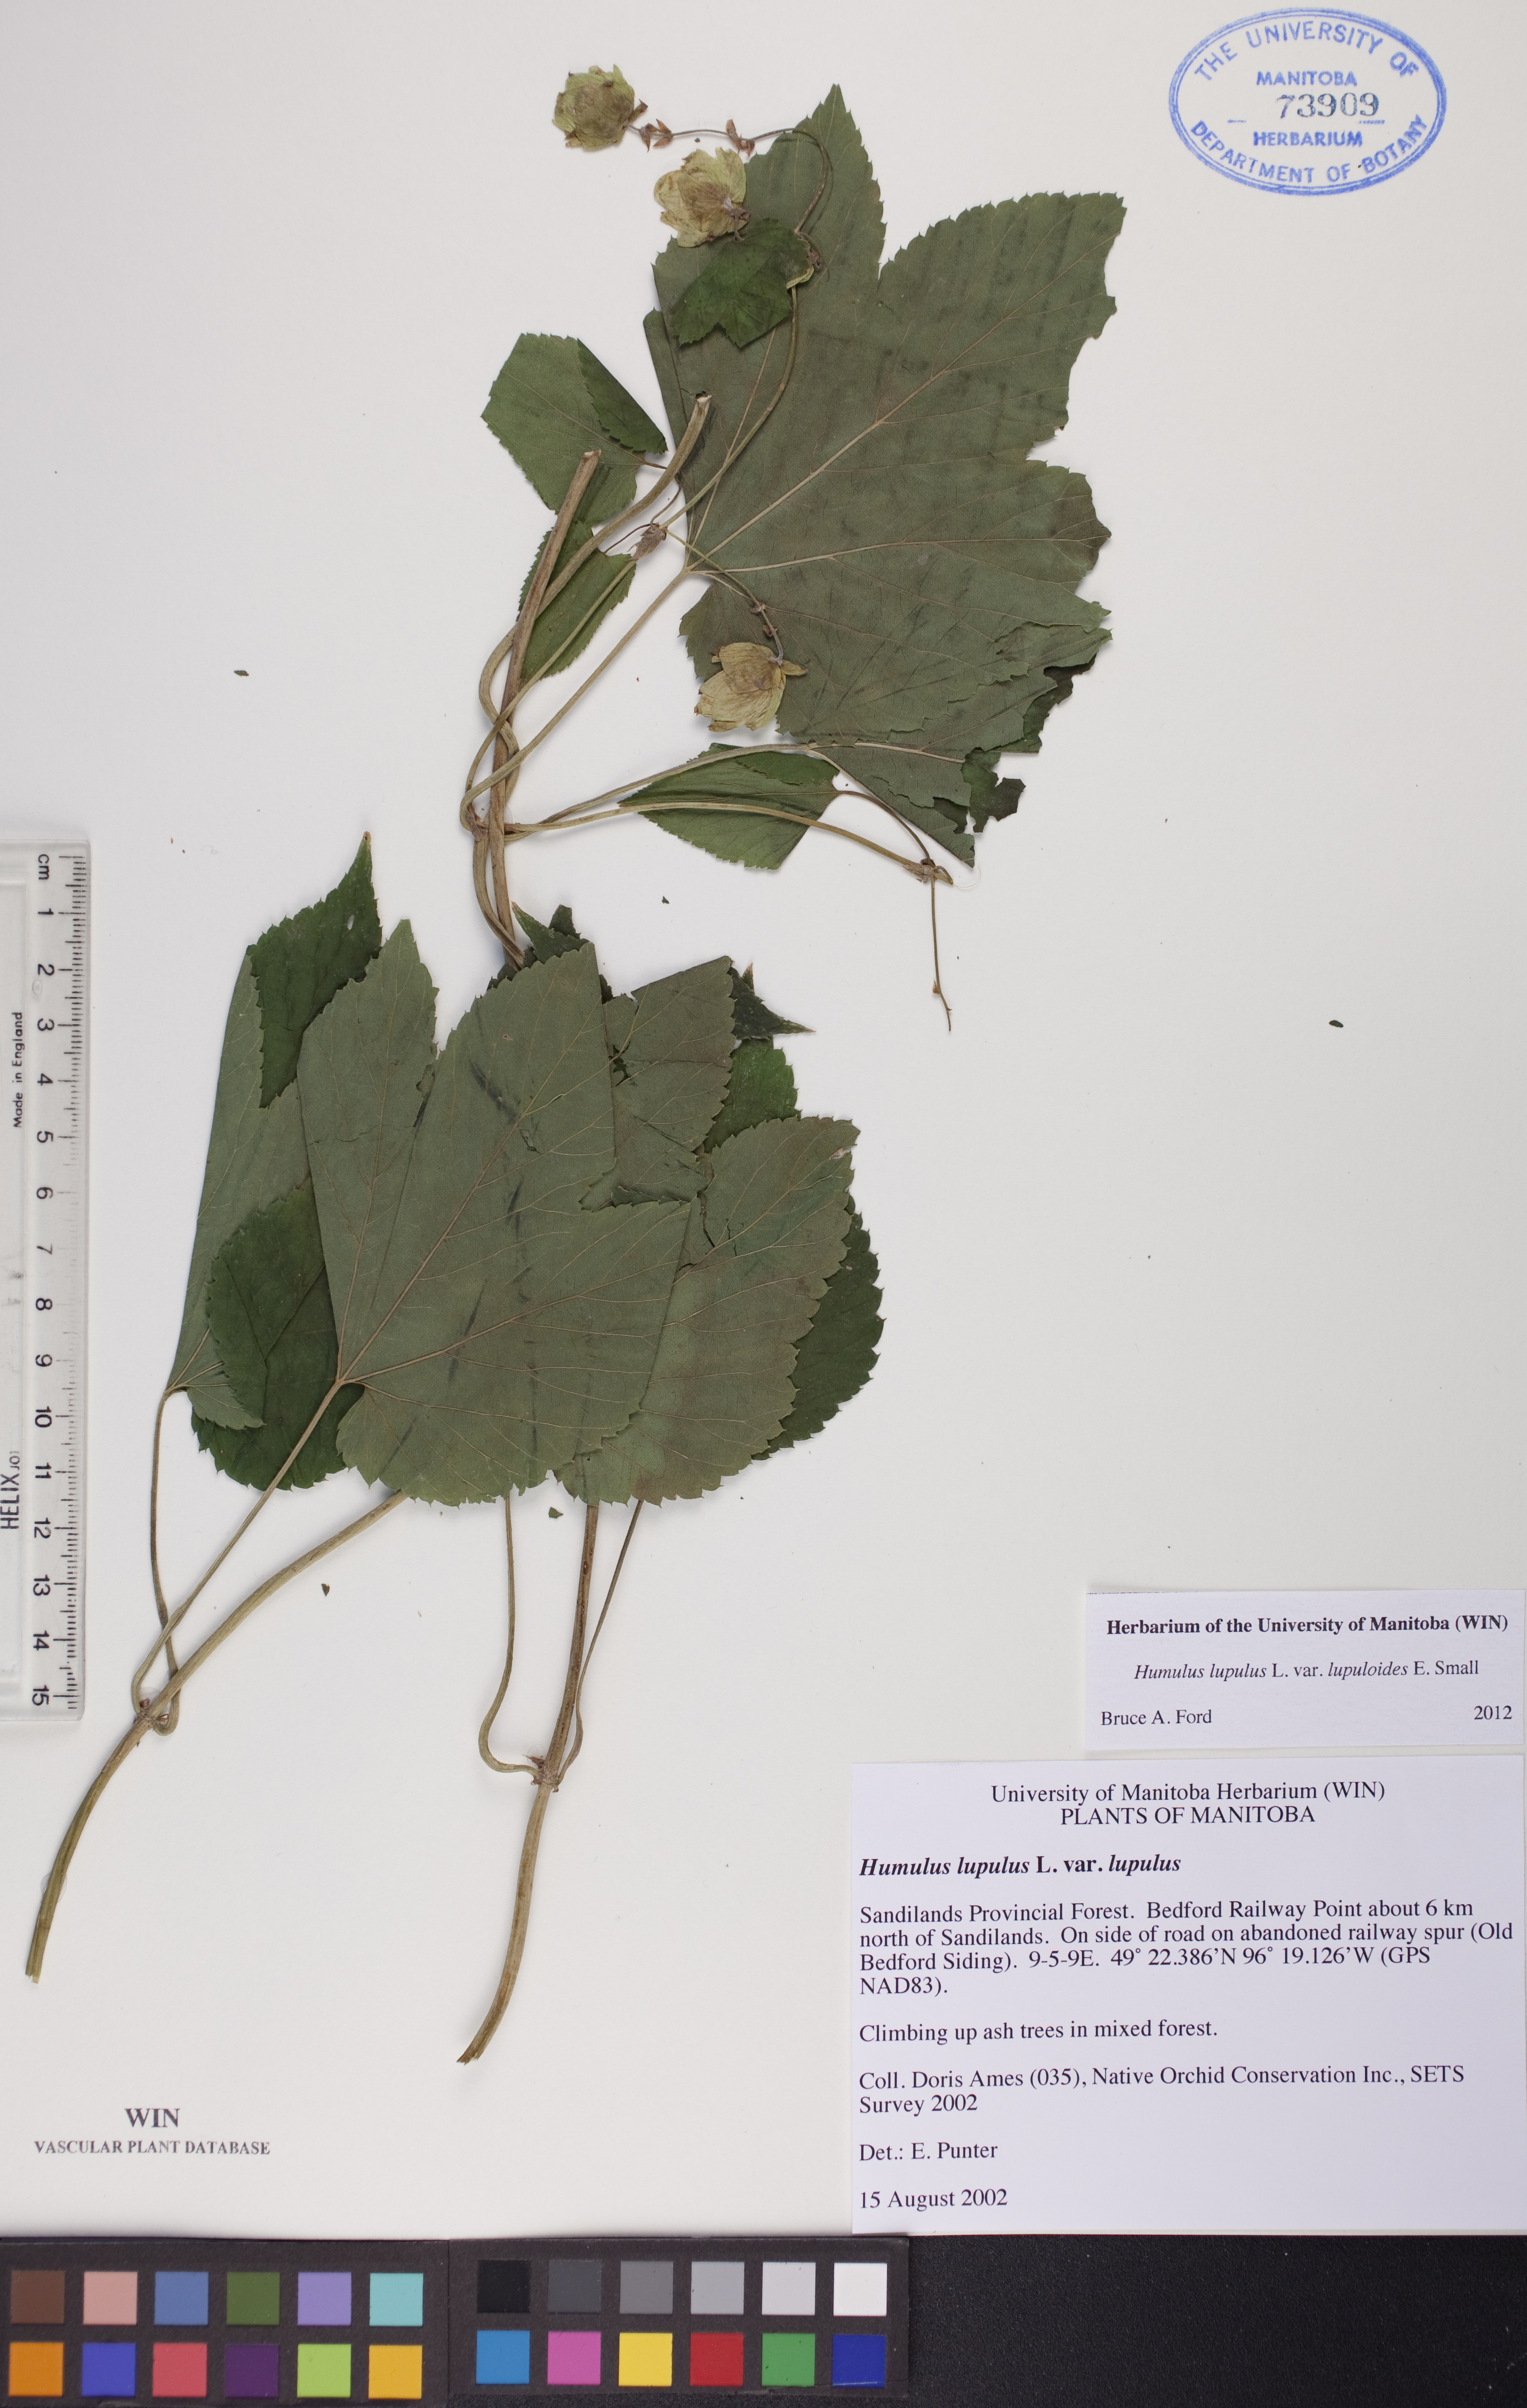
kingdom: Plantae
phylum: Tracheophyta
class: Magnoliopsida
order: Rosales
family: Cannabaceae
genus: Humulus
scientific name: Humulus americanus
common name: American hops
